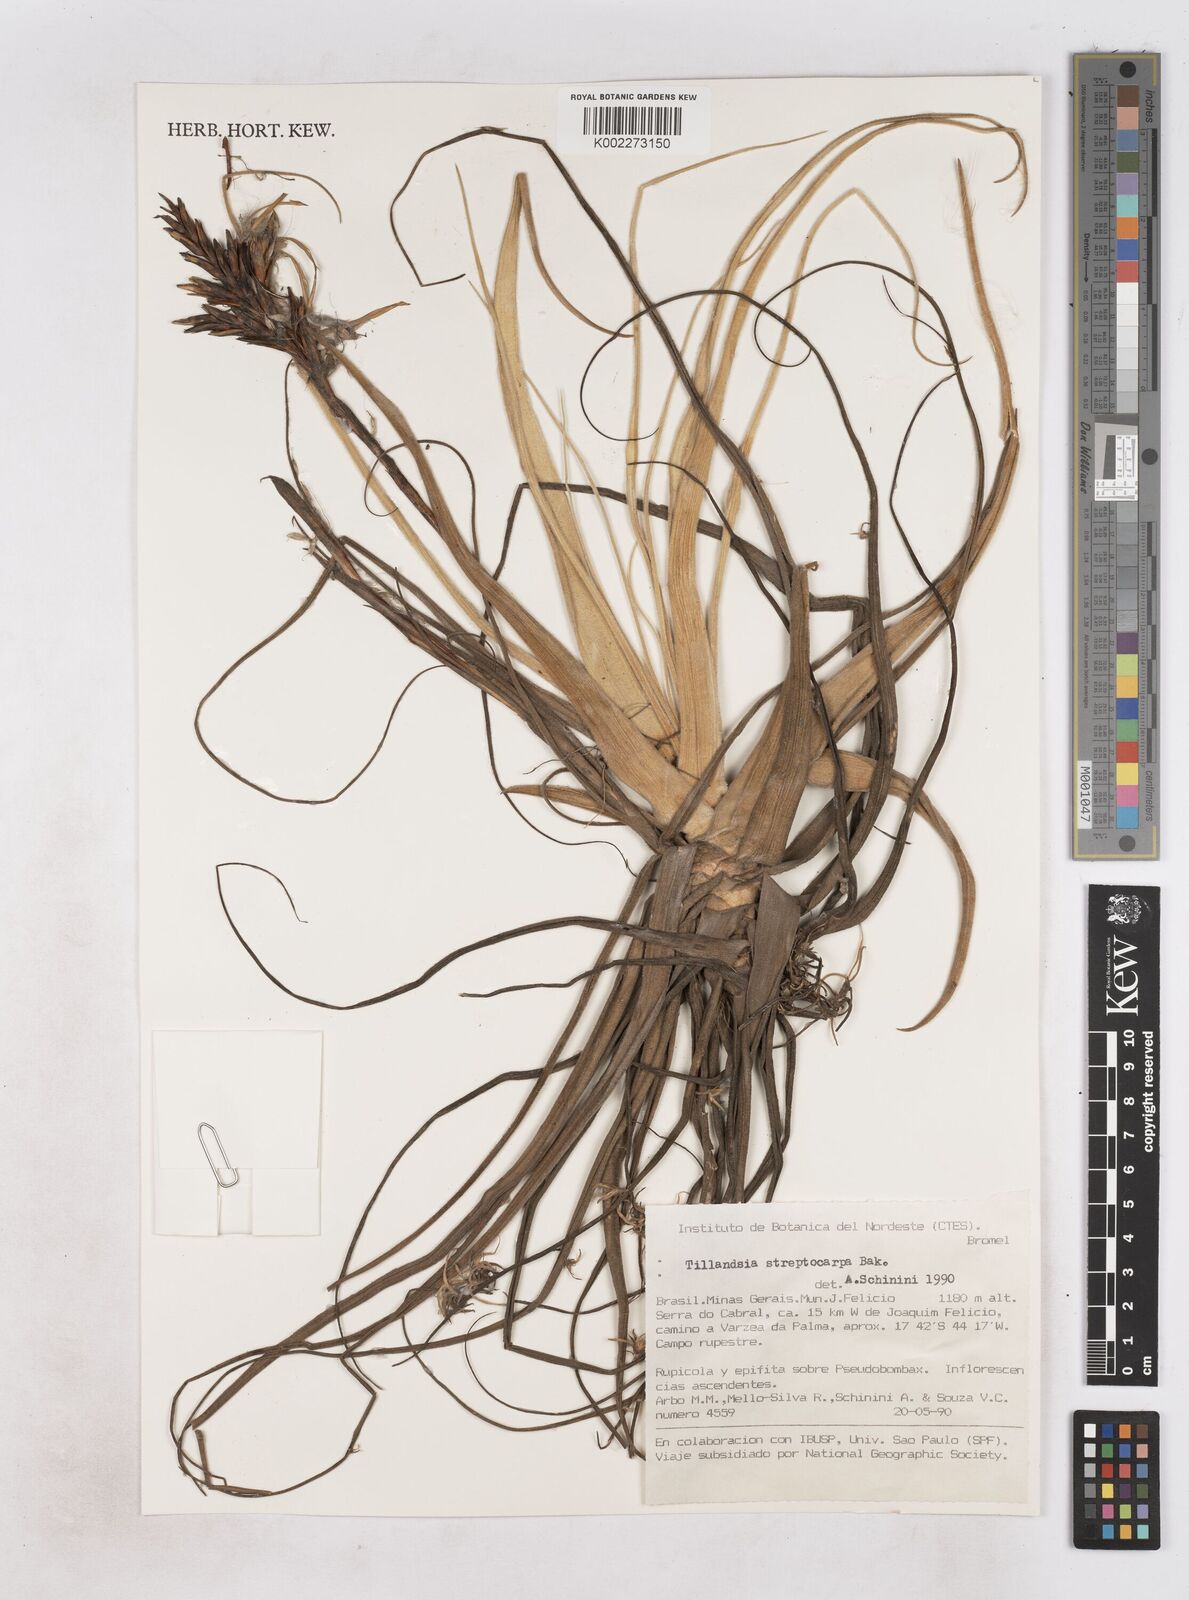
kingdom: Plantae
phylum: Tracheophyta
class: Liliopsida
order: Poales
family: Bromeliaceae
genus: Tillandsia
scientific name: Tillandsia streptocarpa
